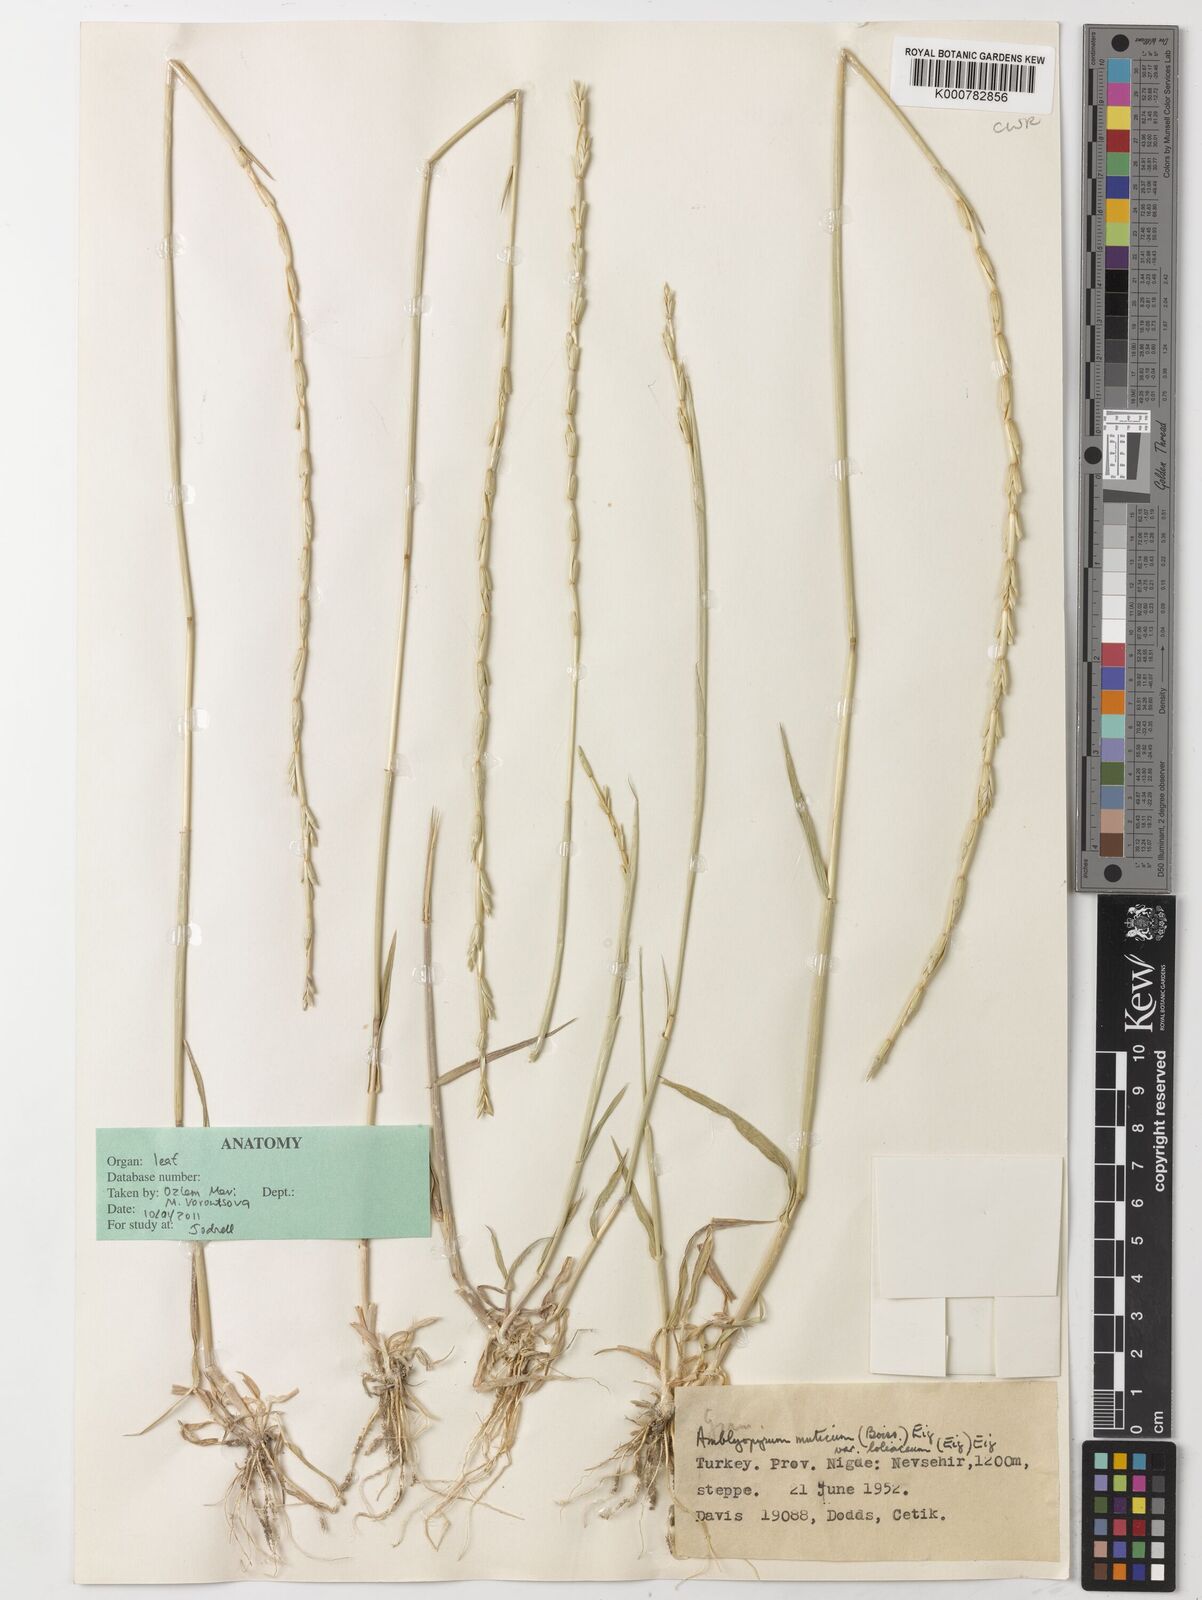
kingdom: Plantae
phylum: Tracheophyta
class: Liliopsida
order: Poales
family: Poaceae
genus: Aegilops
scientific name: Aegilops mutica
